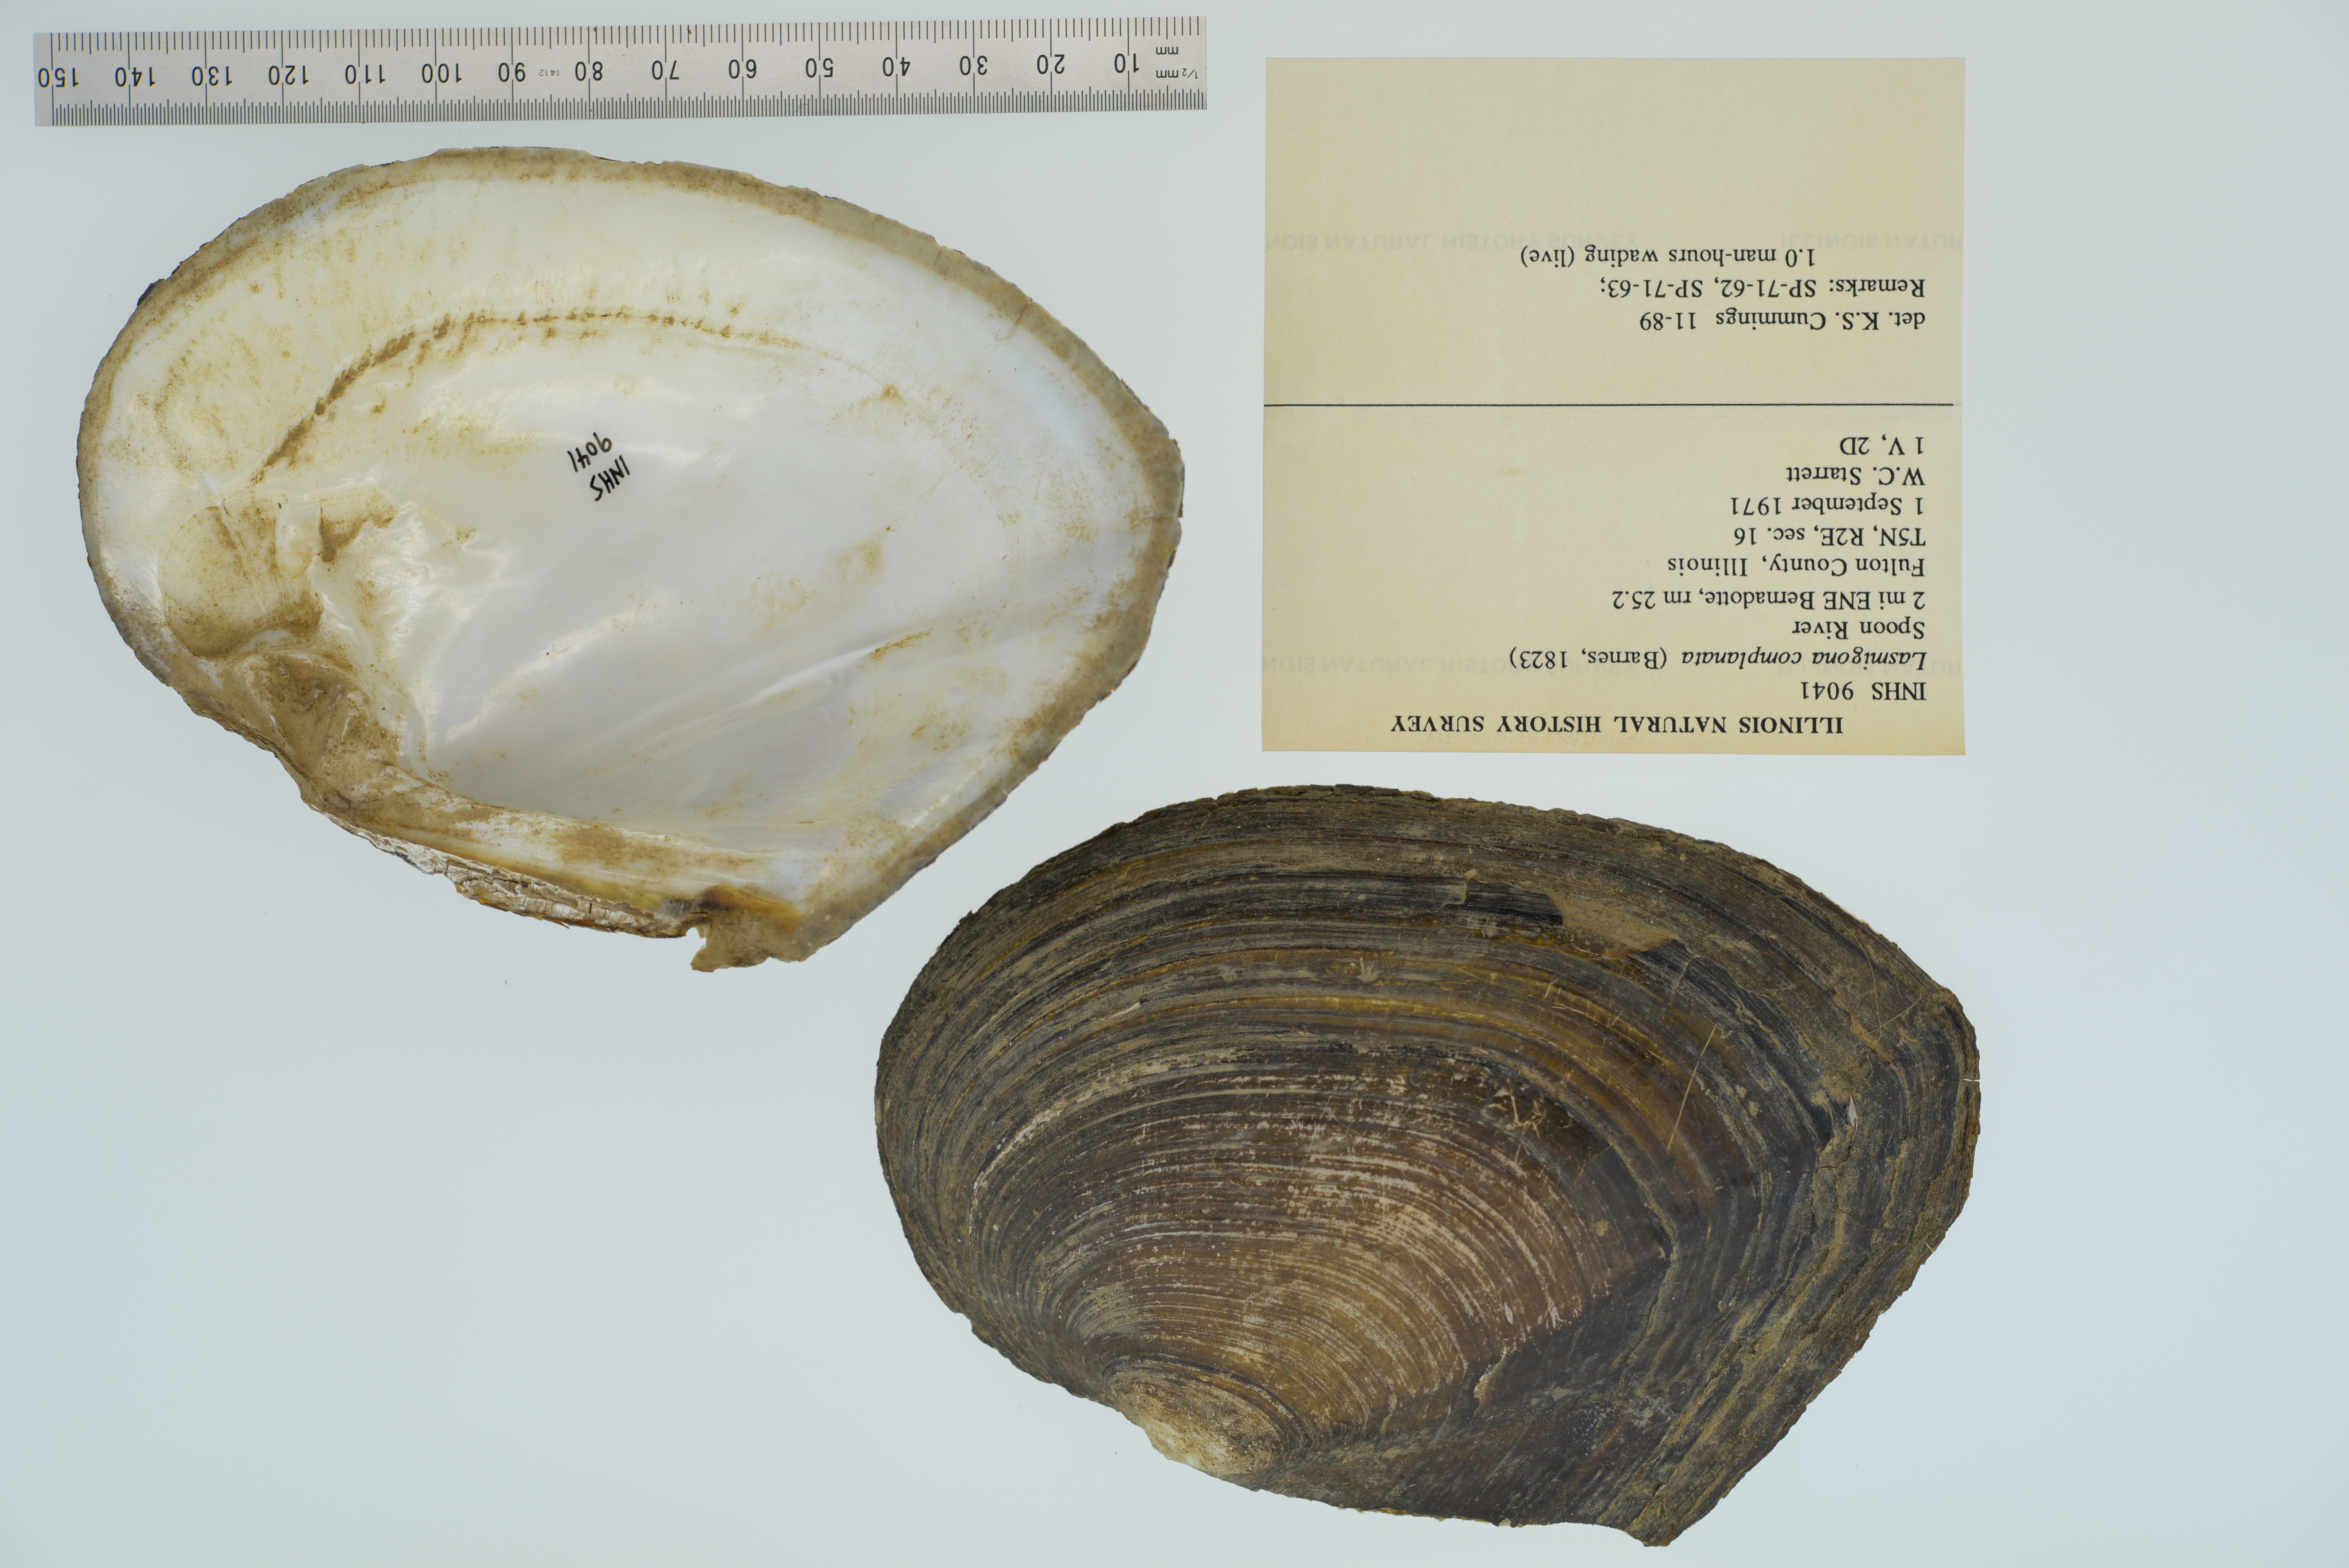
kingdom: Animalia
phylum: Mollusca
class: Bivalvia
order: Unionida
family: Unionidae
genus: Lasmigona
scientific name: Lasmigona complanata
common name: White heelsplitter
